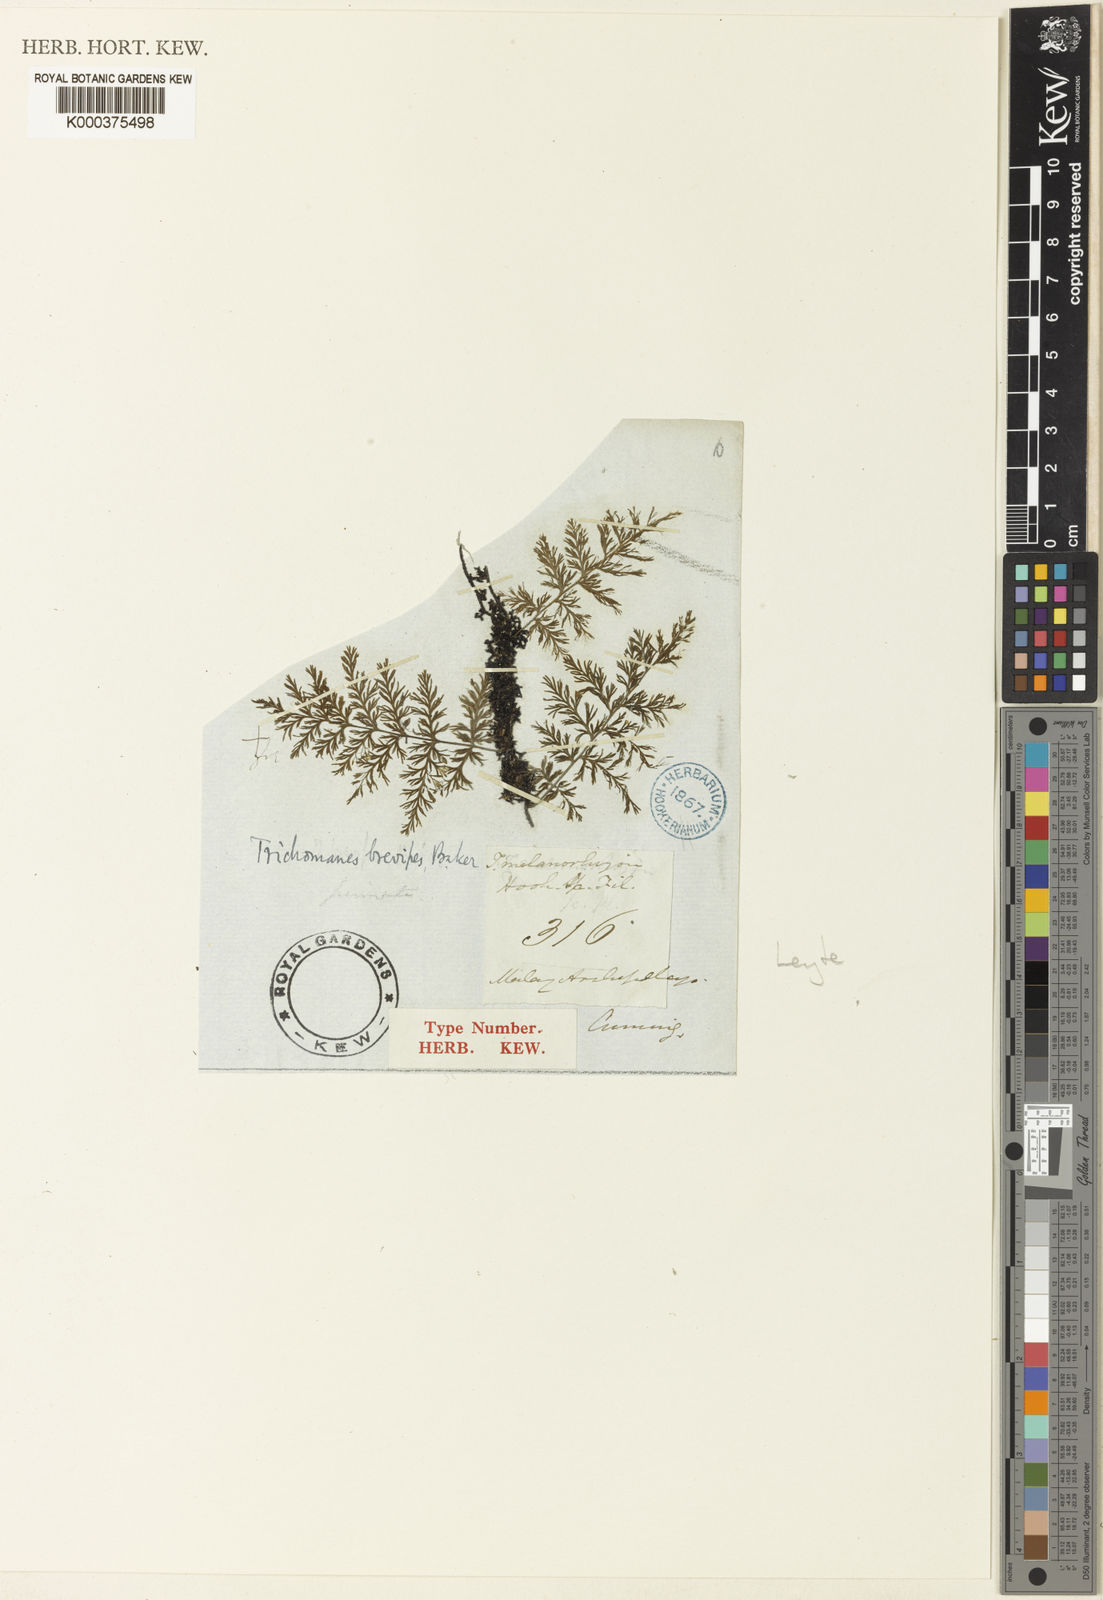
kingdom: Plantae
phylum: Tracheophyta
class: Polypodiopsida
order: Hymenophyllales
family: Hymenophyllaceae
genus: Crepidomanes
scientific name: Crepidomanes brevipes
